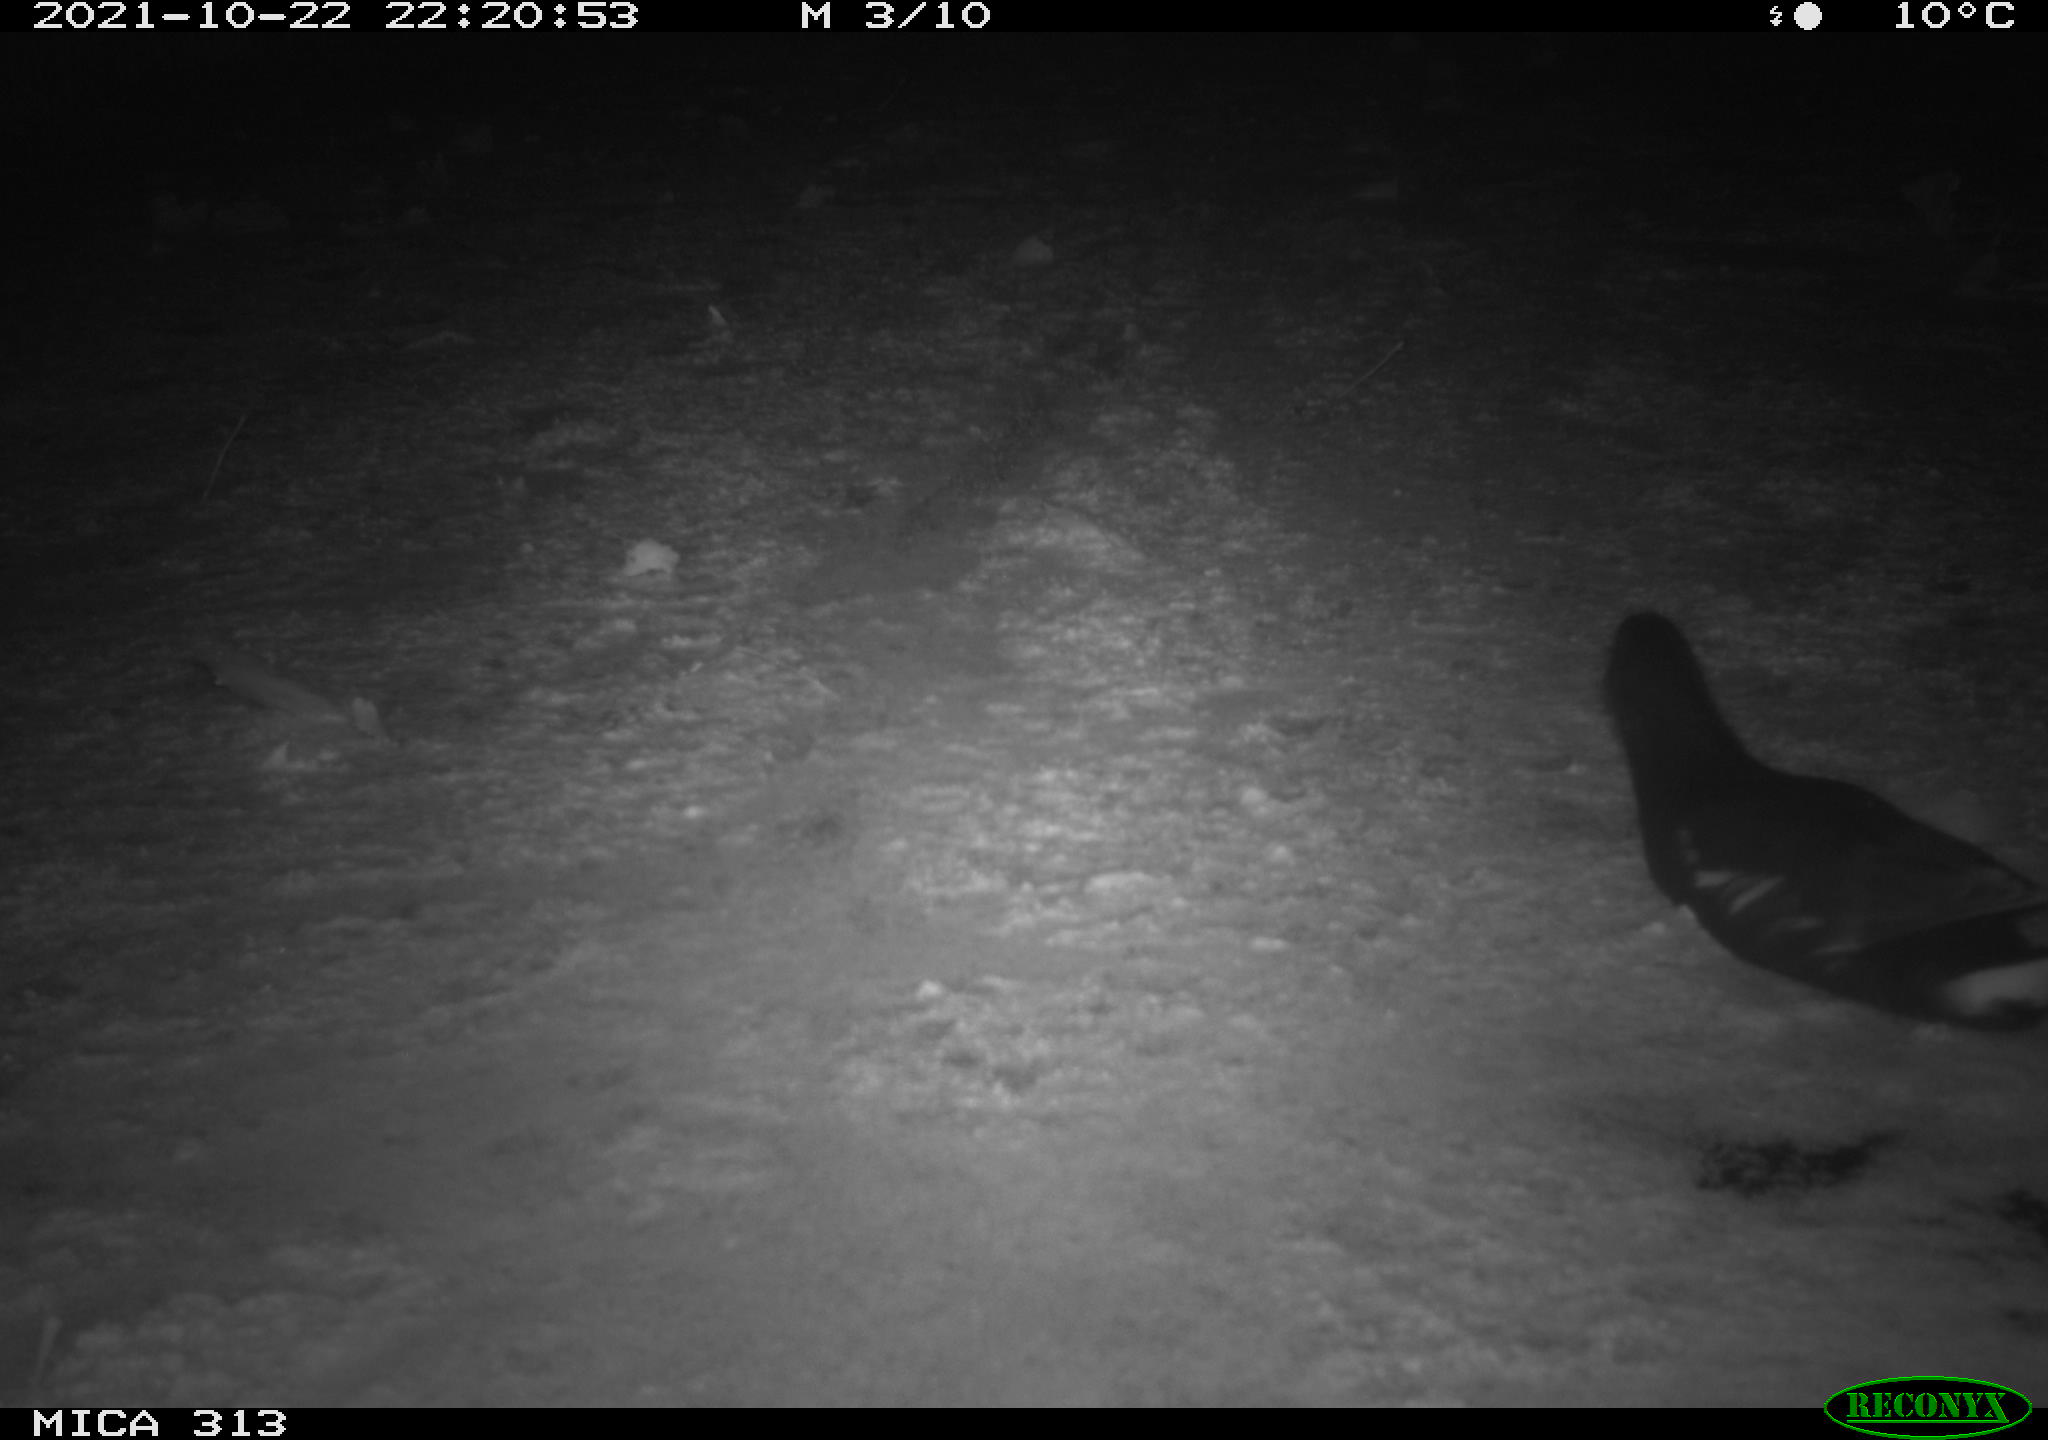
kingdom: Animalia
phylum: Chordata
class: Aves
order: Gruiformes
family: Rallidae
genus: Gallinula
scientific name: Gallinula chloropus
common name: Common moorhen
